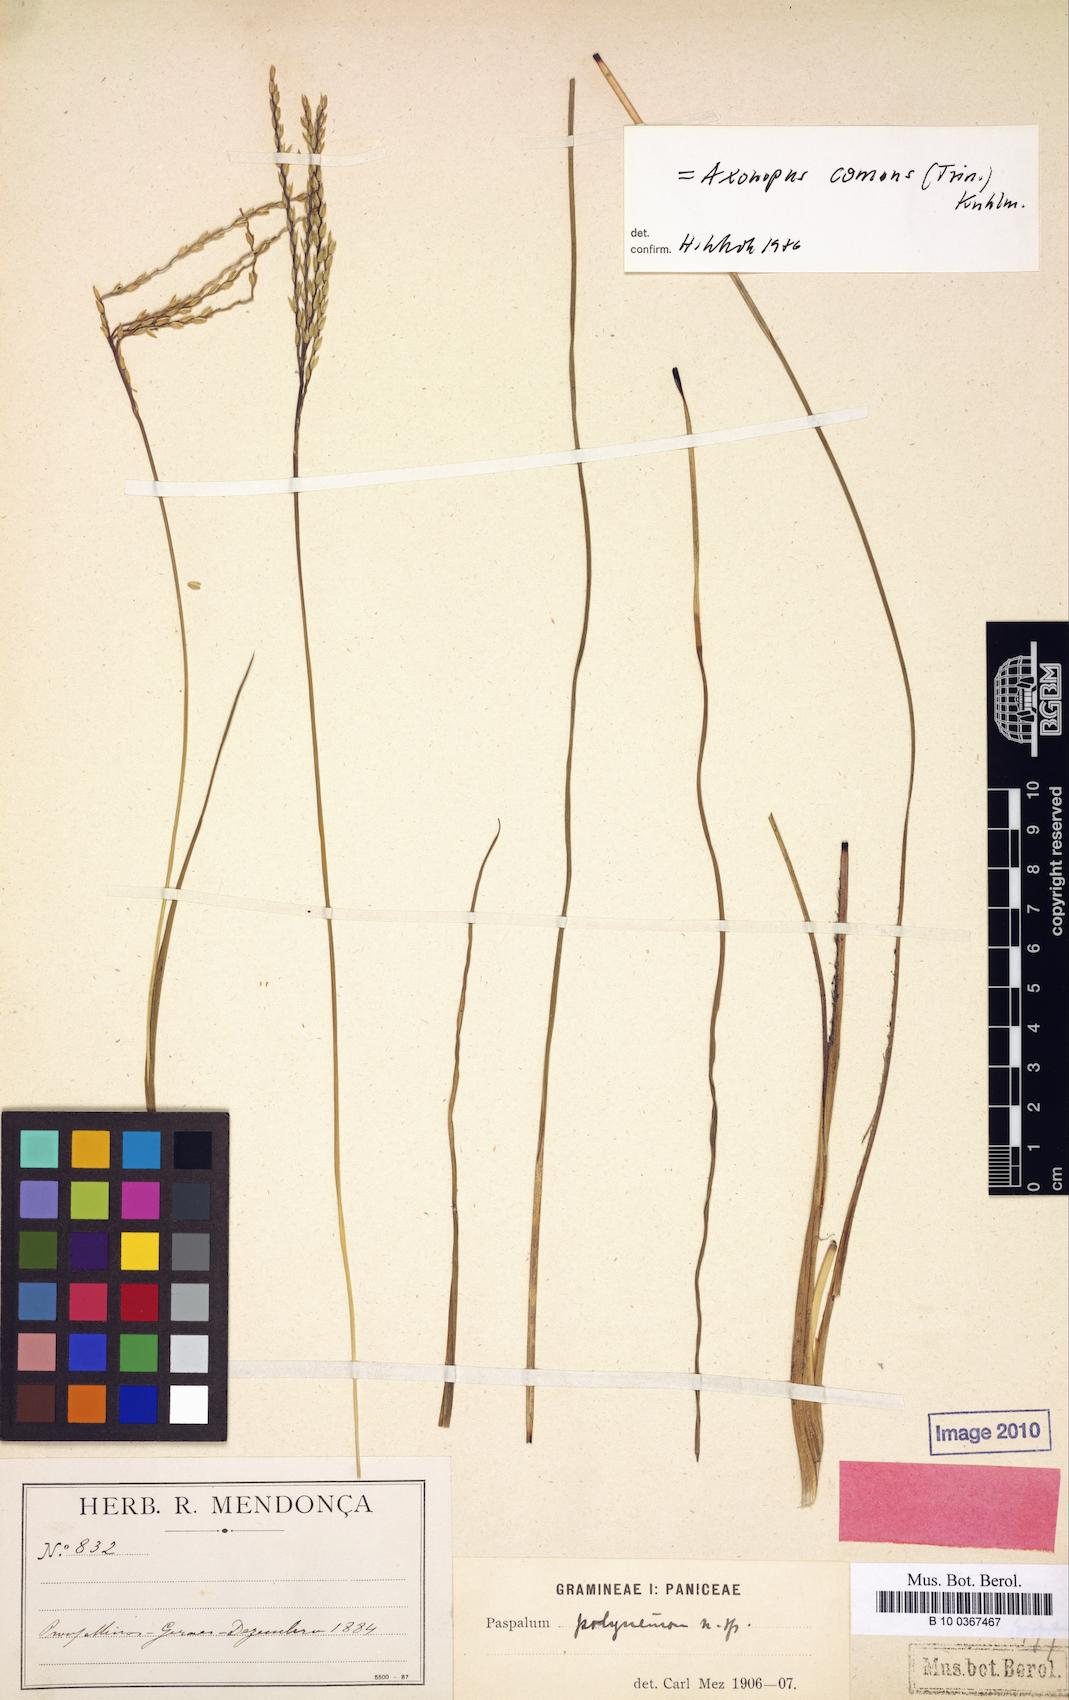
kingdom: Plantae
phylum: Tracheophyta
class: Liliopsida
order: Poales
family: Poaceae
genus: Axonopus
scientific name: Axonopus siccus
